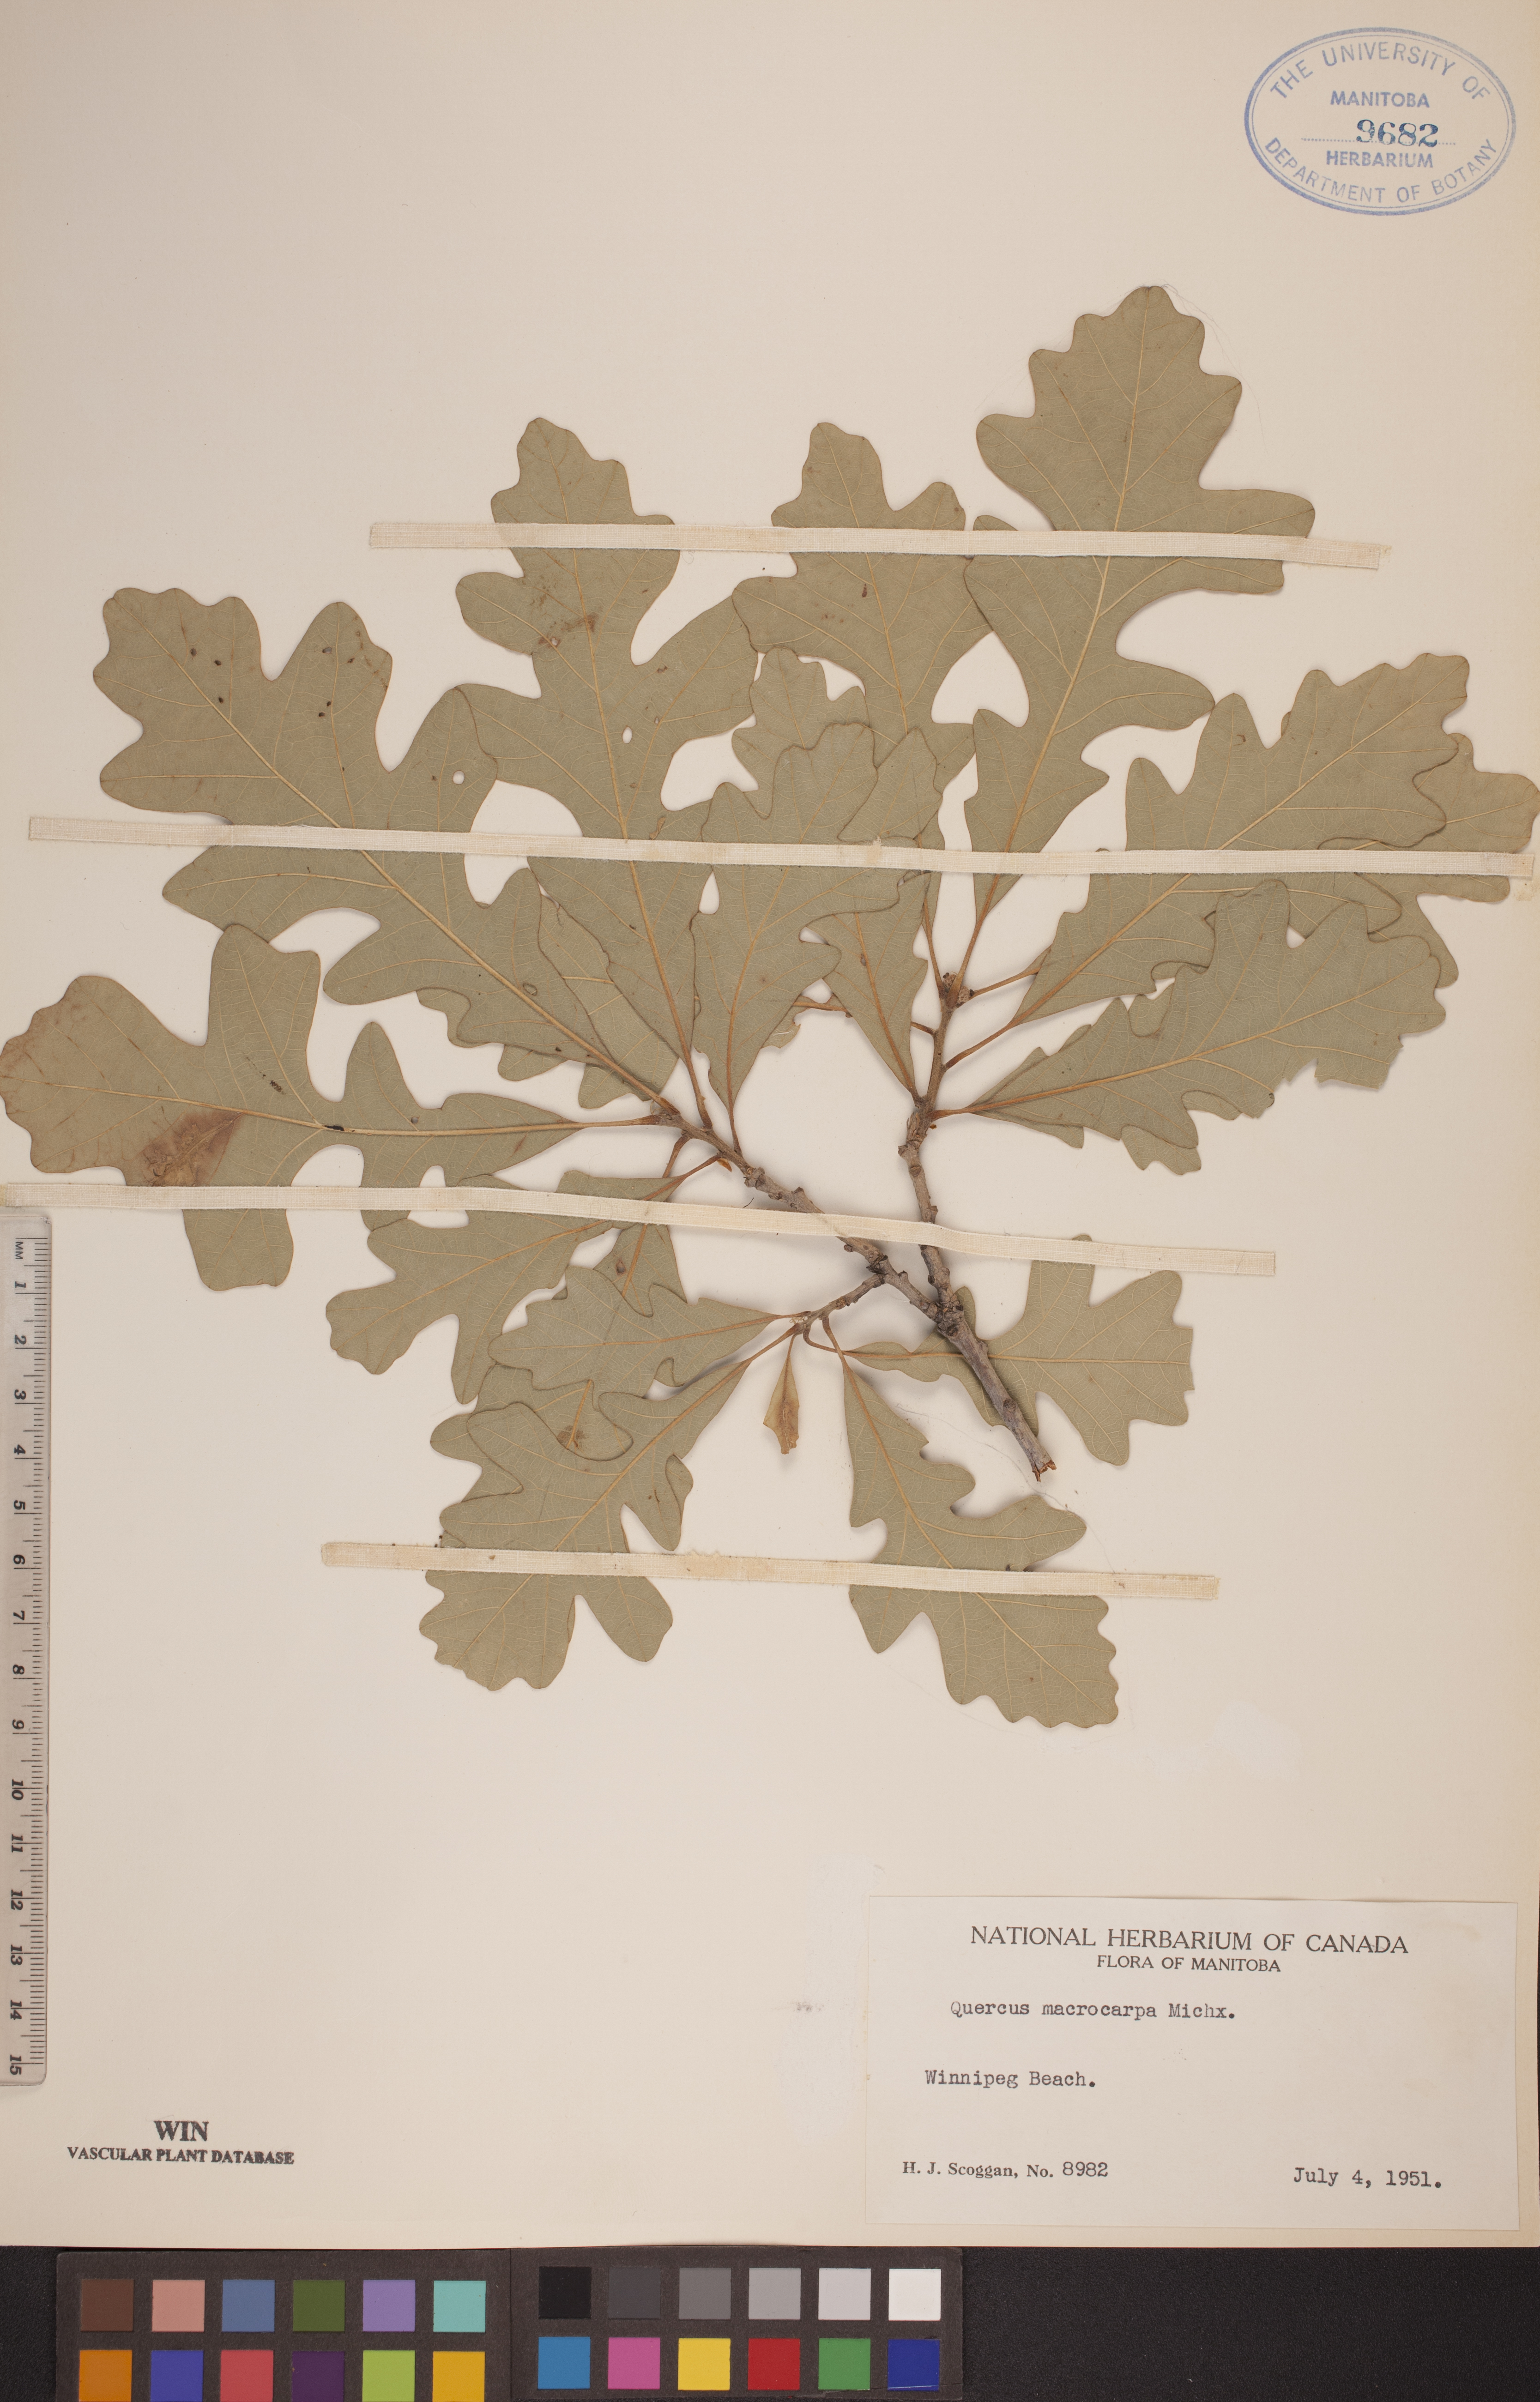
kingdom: Plantae
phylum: Tracheophyta
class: Magnoliopsida
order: Fagales
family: Fagaceae
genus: Quercus
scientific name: Quercus macrocarpa
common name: Bur oak
